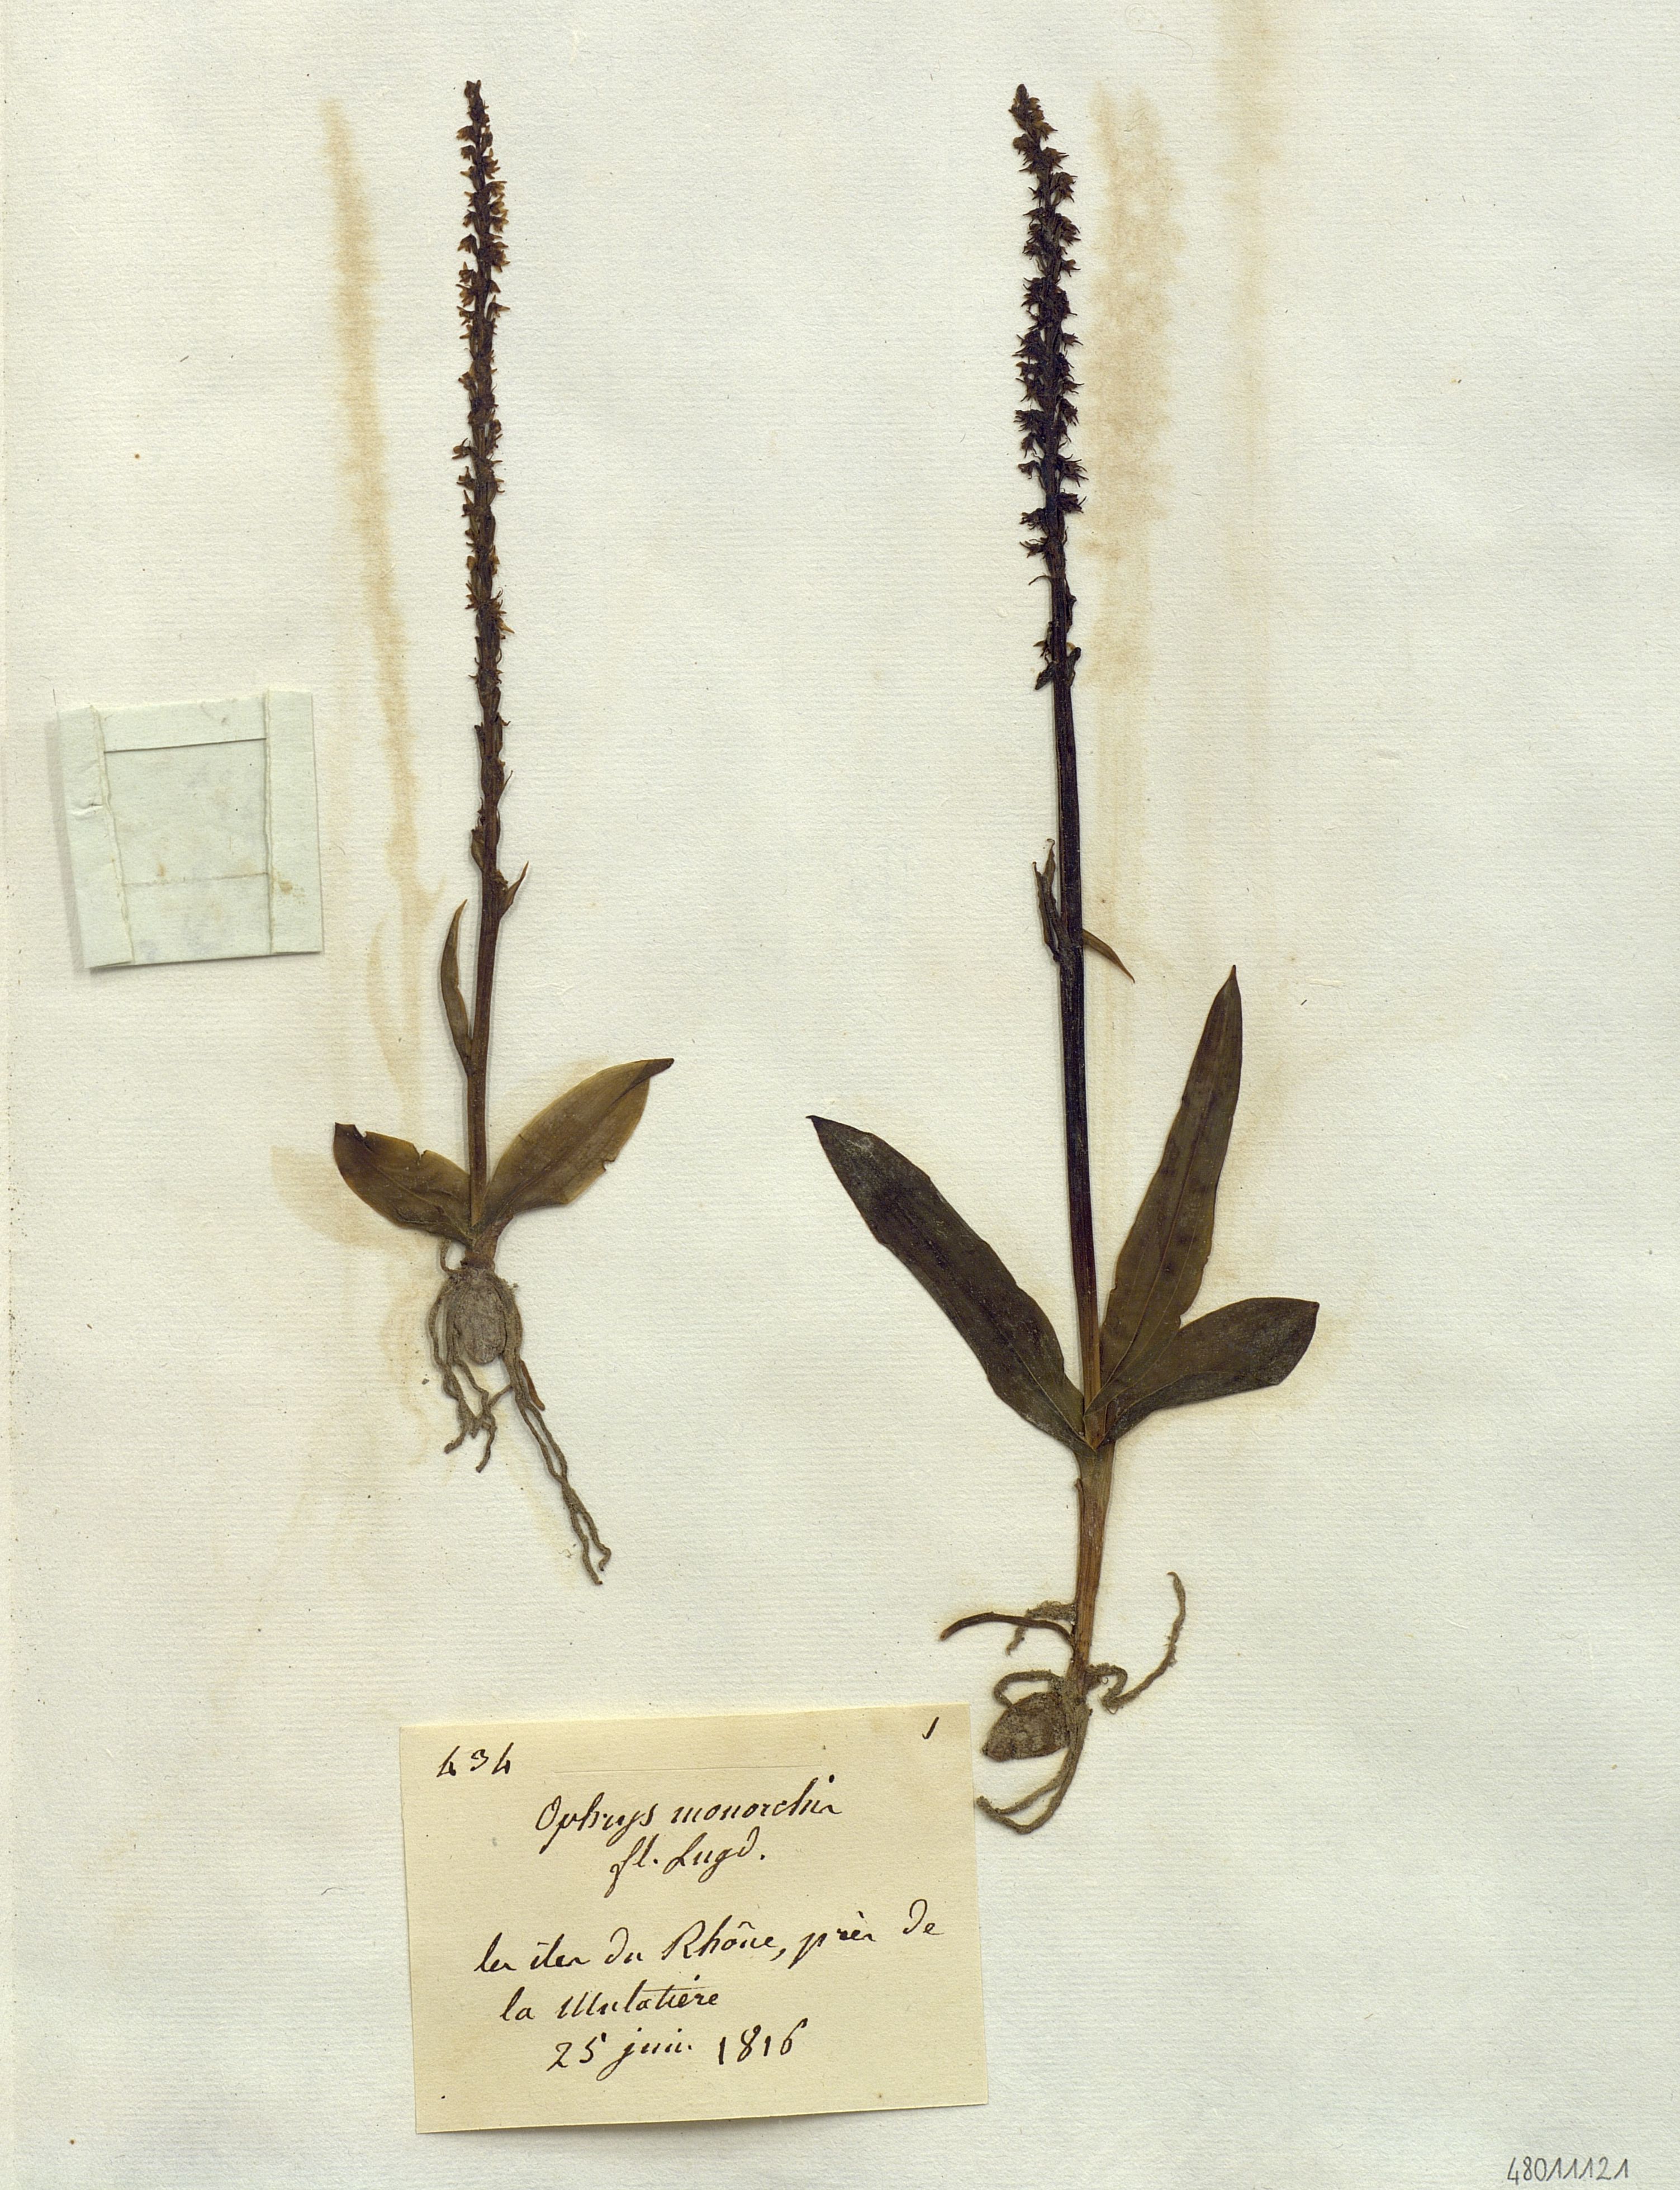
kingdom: Plantae
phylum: Tracheophyta
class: Liliopsida
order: Asparagales
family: Orchidaceae
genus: Herminium
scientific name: Herminium monorchis
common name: Musk orchid
